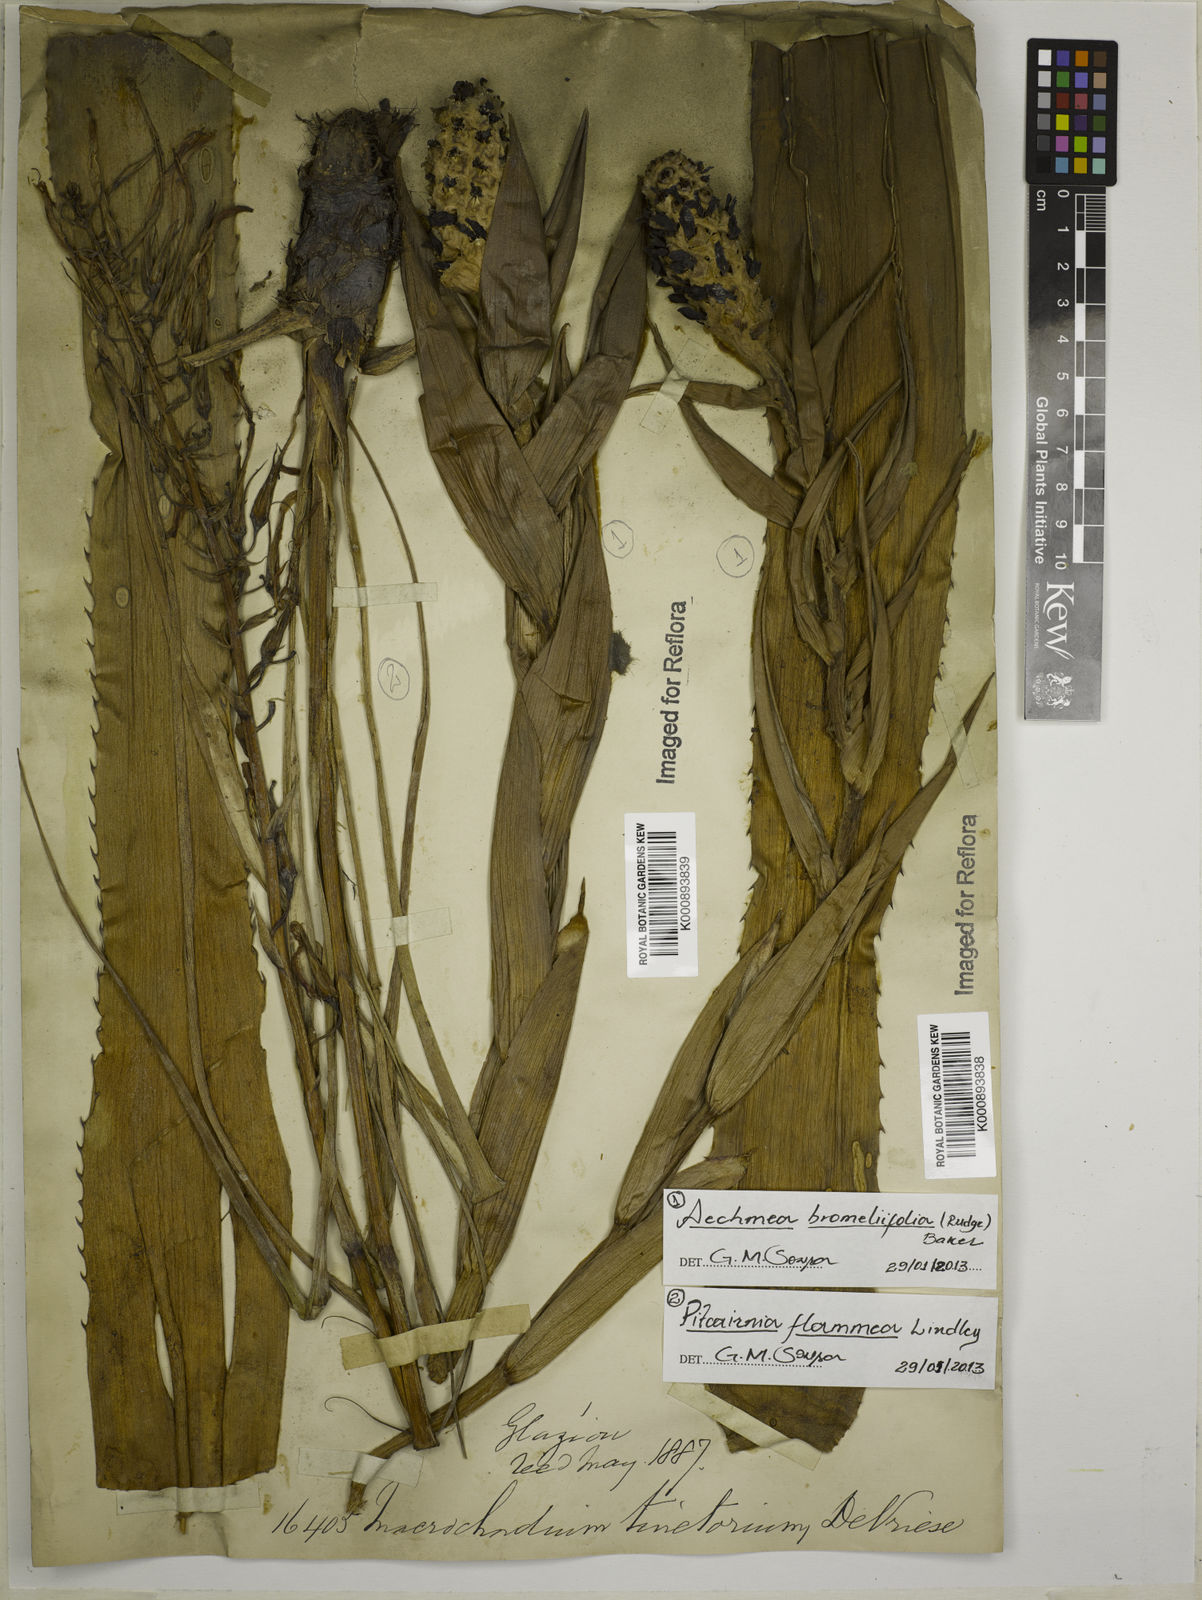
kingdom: Plantae
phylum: Tracheophyta
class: Liliopsida
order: Poales
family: Bromeliaceae
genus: Aechmea
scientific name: Aechmea
